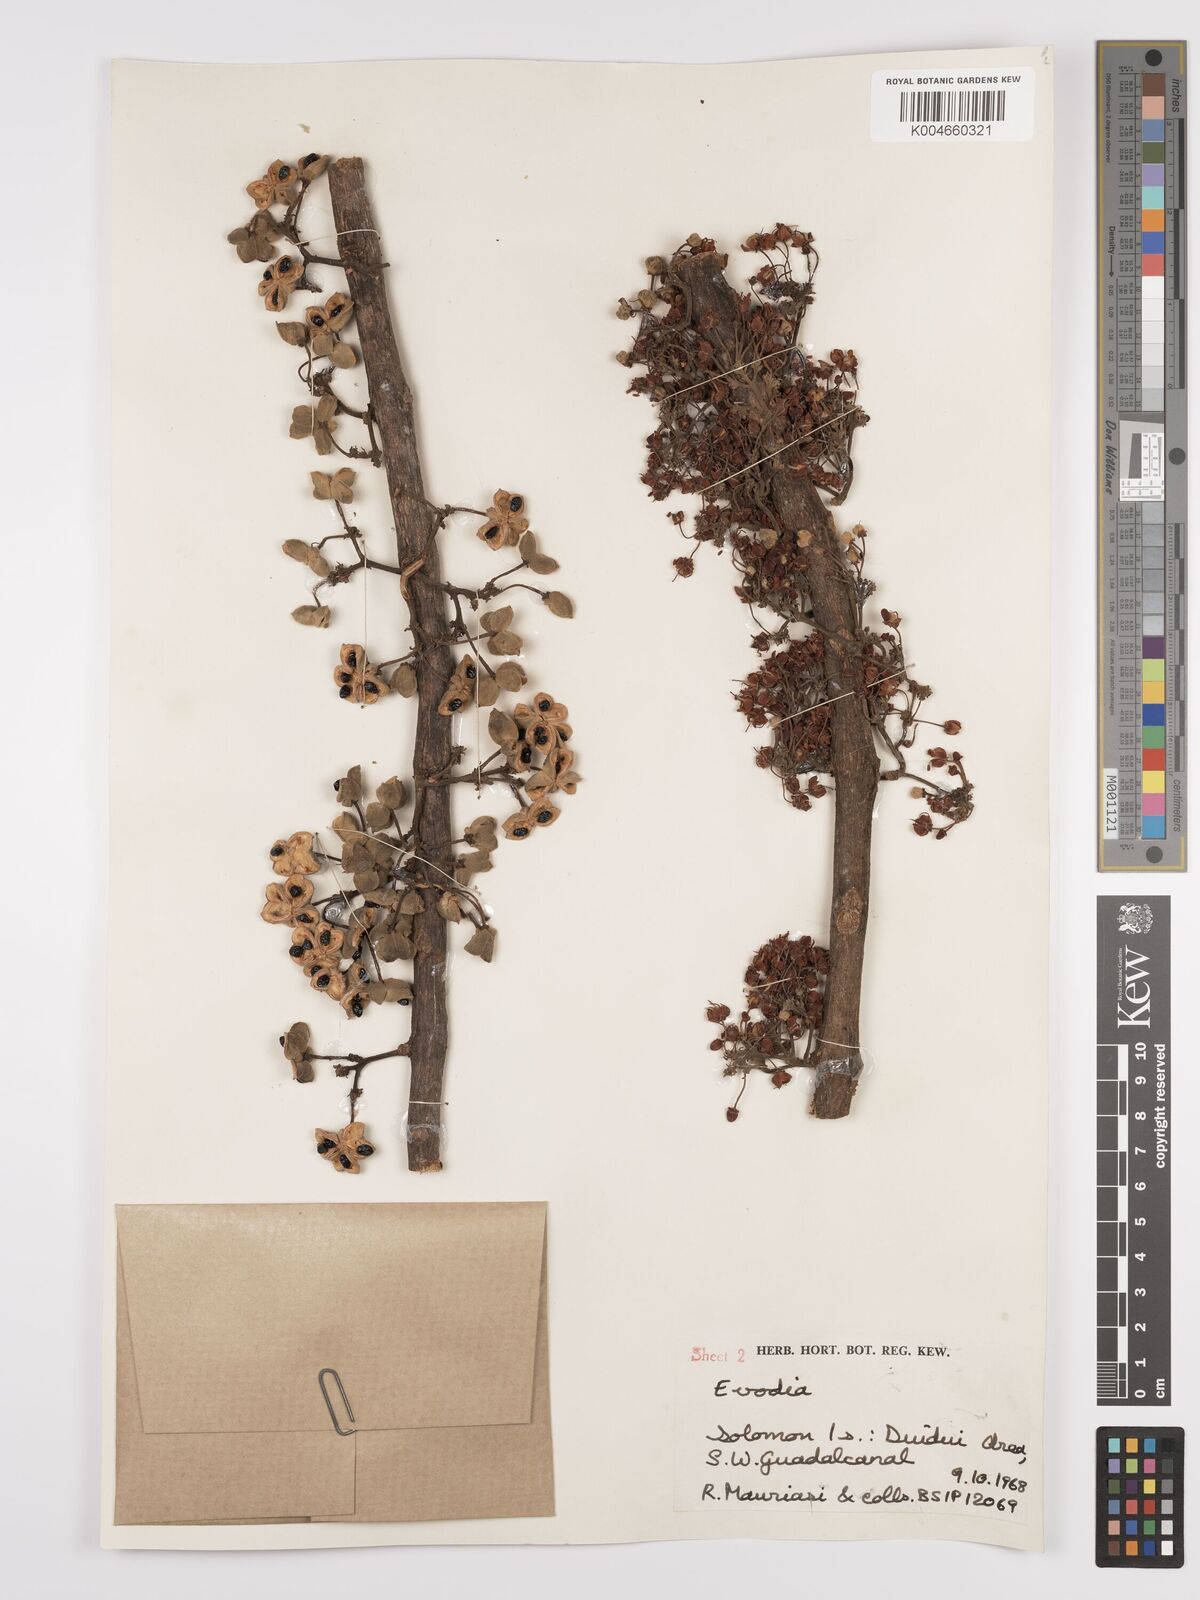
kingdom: Plantae
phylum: Tracheophyta
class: Magnoliopsida
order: Sapindales
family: Rutaceae
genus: Euodia
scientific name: Euodia
